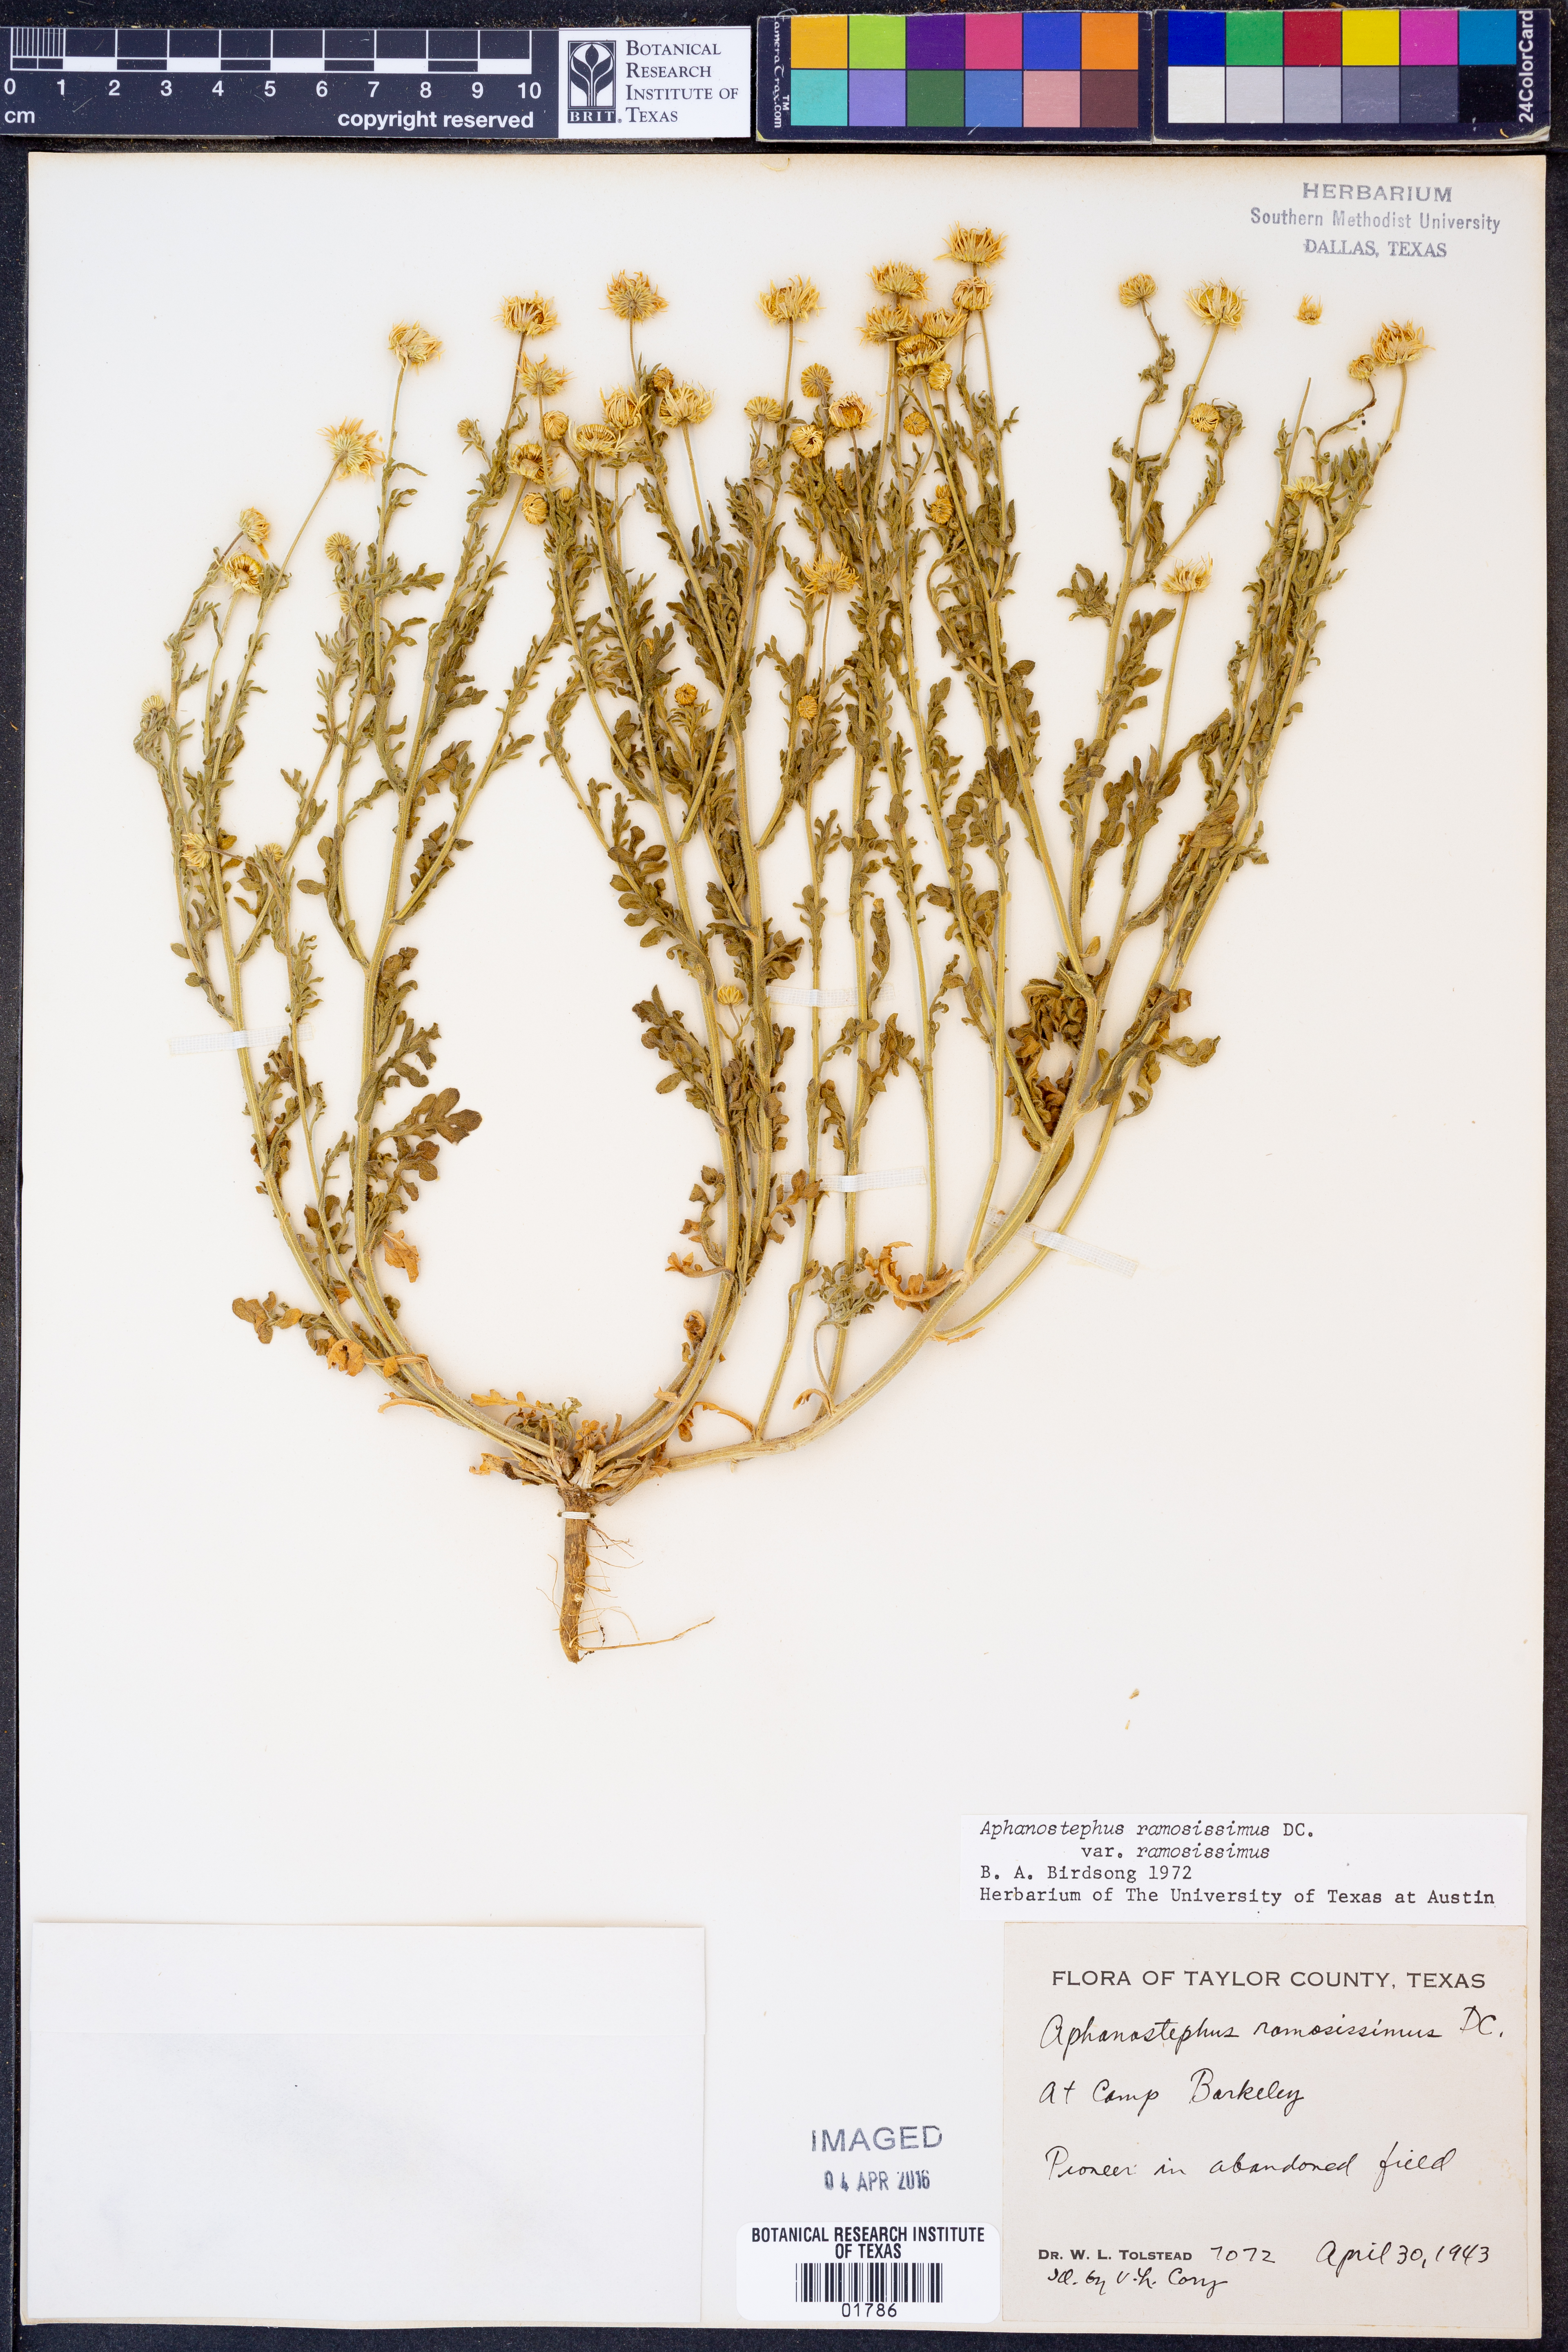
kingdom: Plantae
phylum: Tracheophyta
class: Magnoliopsida
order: Asterales
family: Asteraceae
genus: Aphanostephus
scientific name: Aphanostephus ramosissimus
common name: Plains lazy daisy
